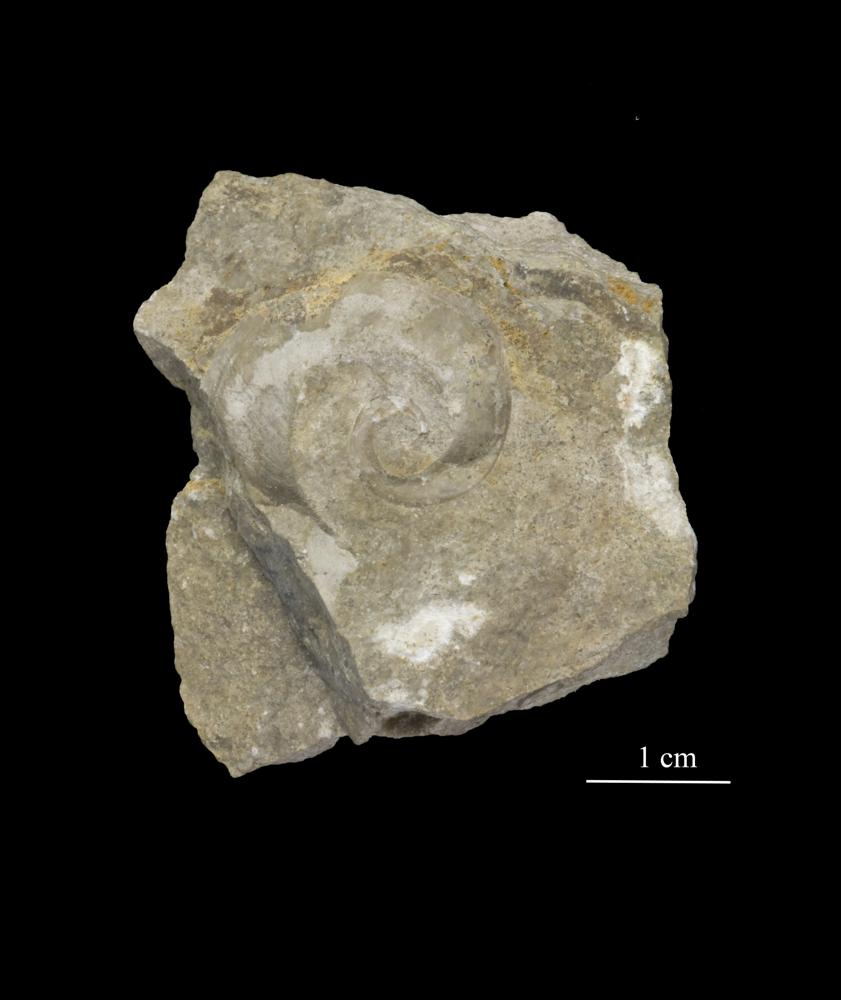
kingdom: Animalia
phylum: Mollusca
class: Gastropoda
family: Lesueurillidae
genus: Eccyliopterus
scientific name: Eccyliopterus regularis
